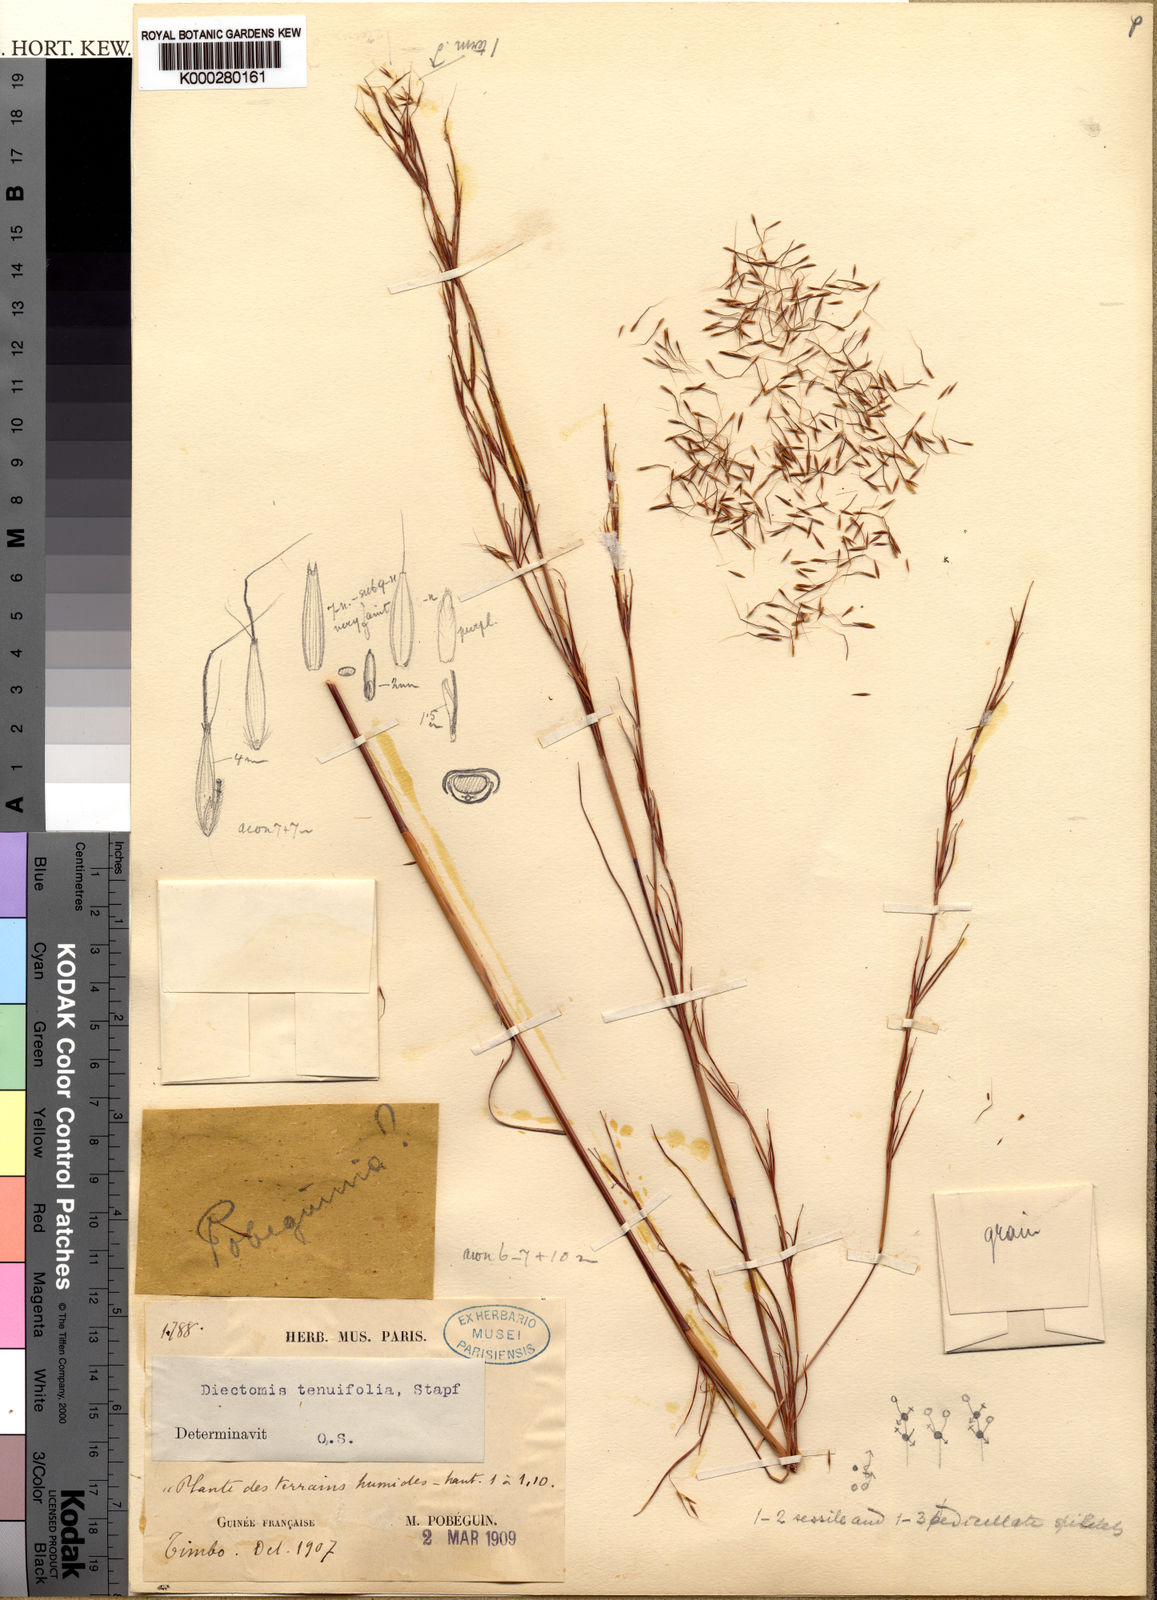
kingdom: Plantae
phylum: Tracheophyta
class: Liliopsida
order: Poales
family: Poaceae
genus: Anadelphia
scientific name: Anadelphia leptocoma
